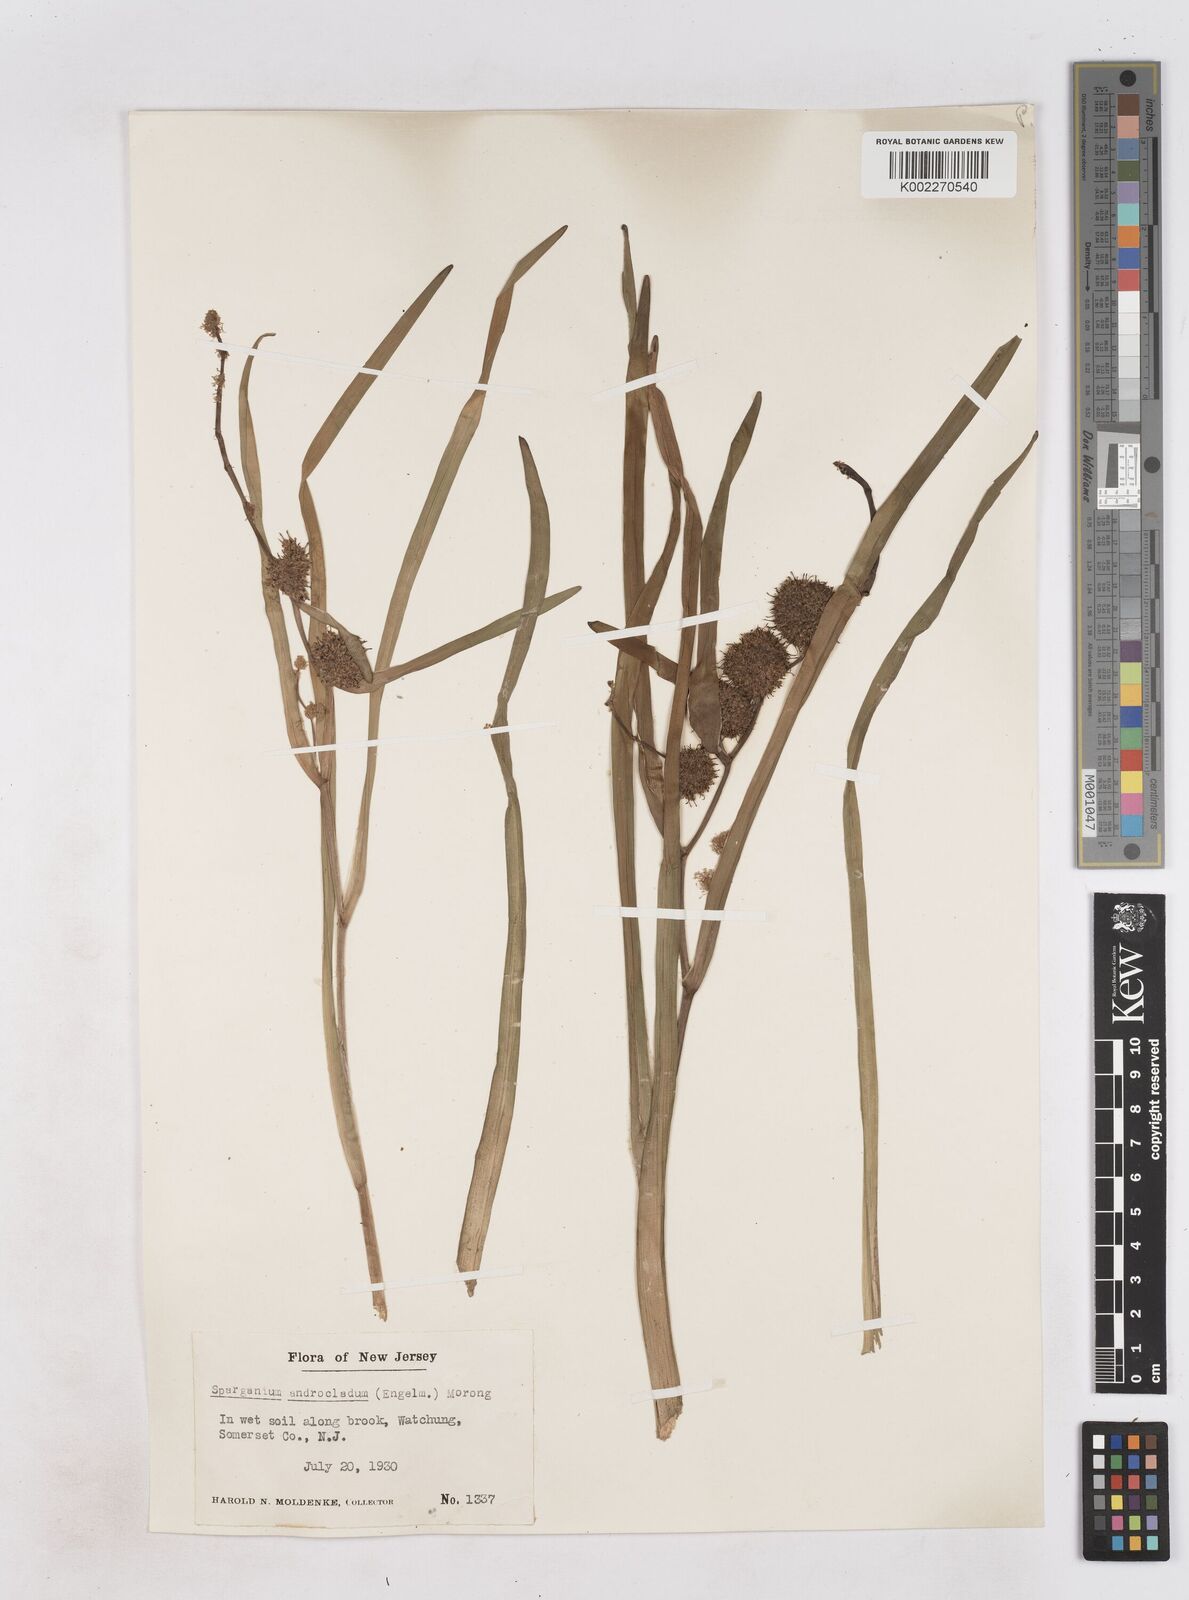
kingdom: Plantae
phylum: Tracheophyta
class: Liliopsida
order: Poales
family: Typhaceae
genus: Sparganium
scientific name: Sparganium androcladum
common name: Branched burreed
